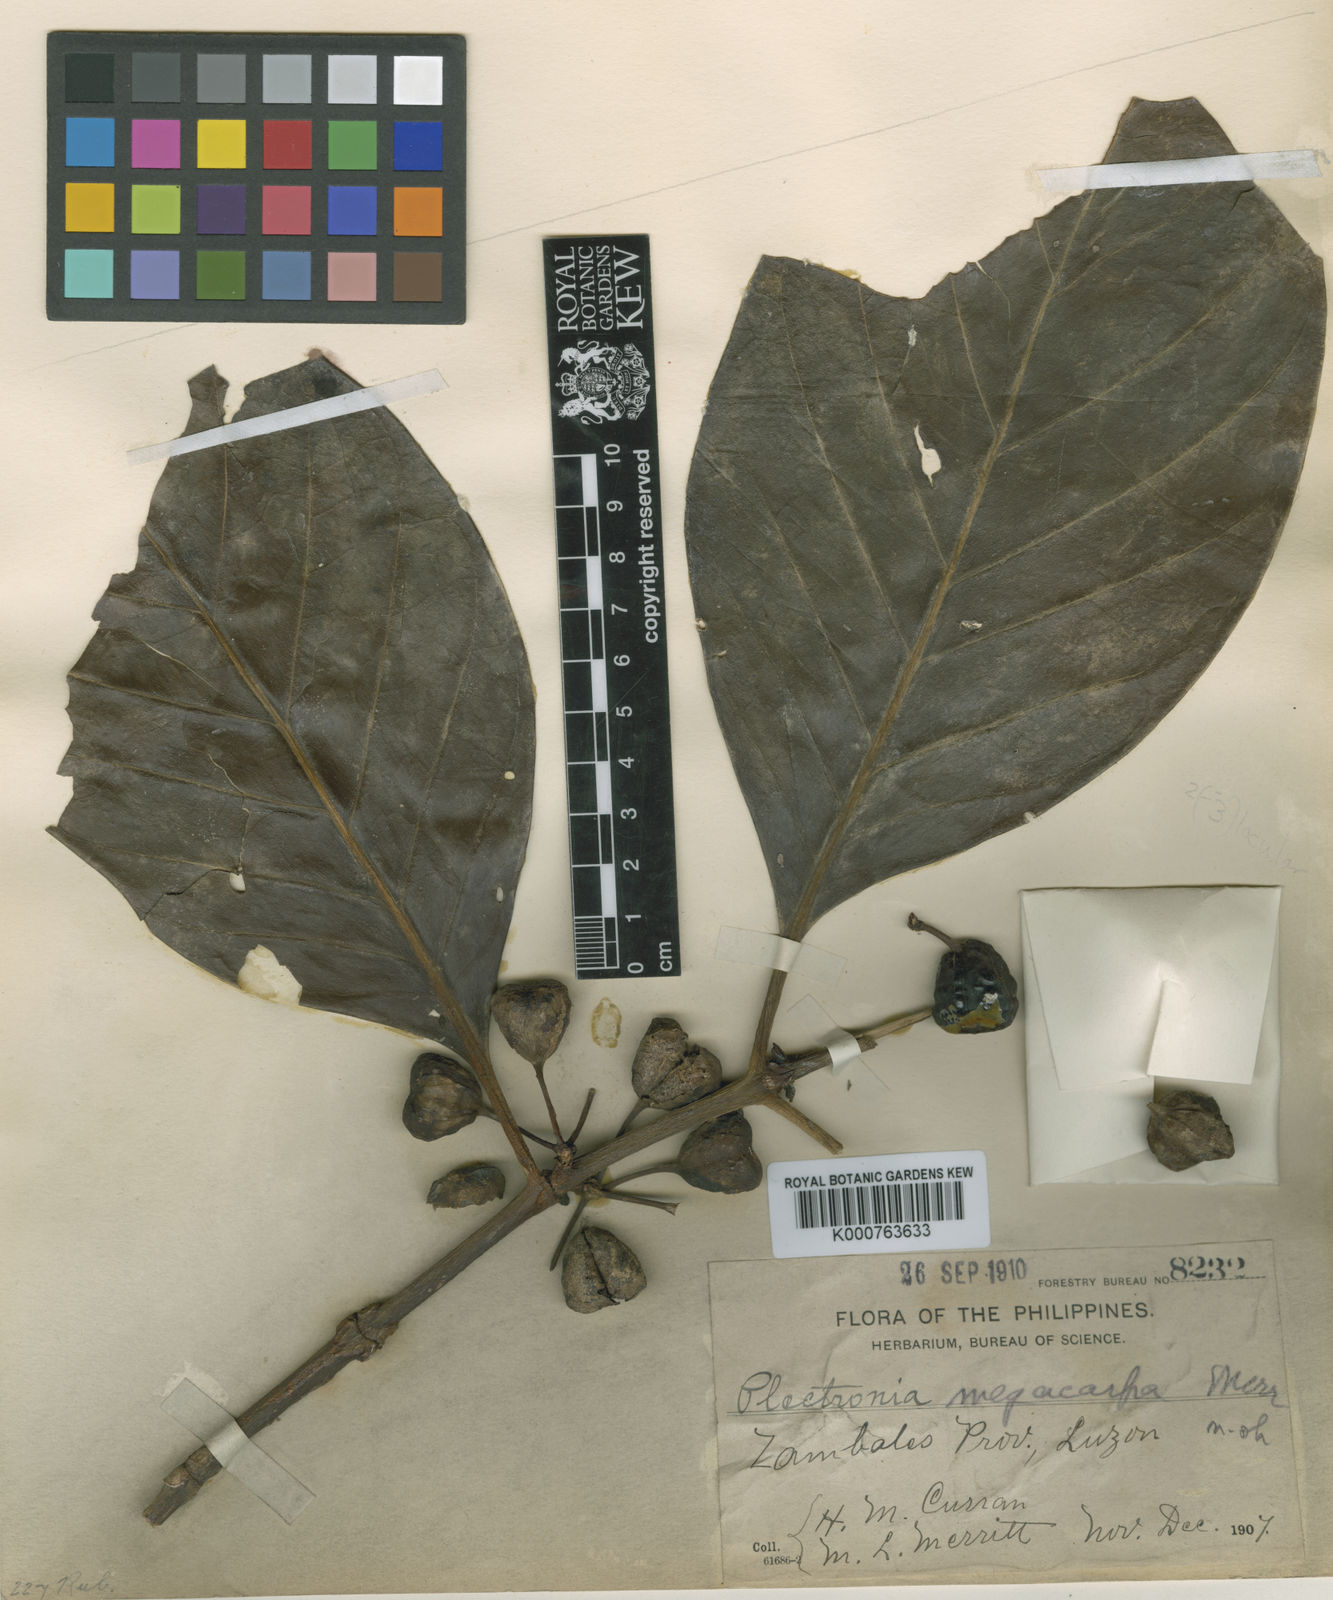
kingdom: Plantae
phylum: Tracheophyta
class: Magnoliopsida
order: Gentianales
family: Rubiaceae
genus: Canthium
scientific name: Canthium megacarpum
